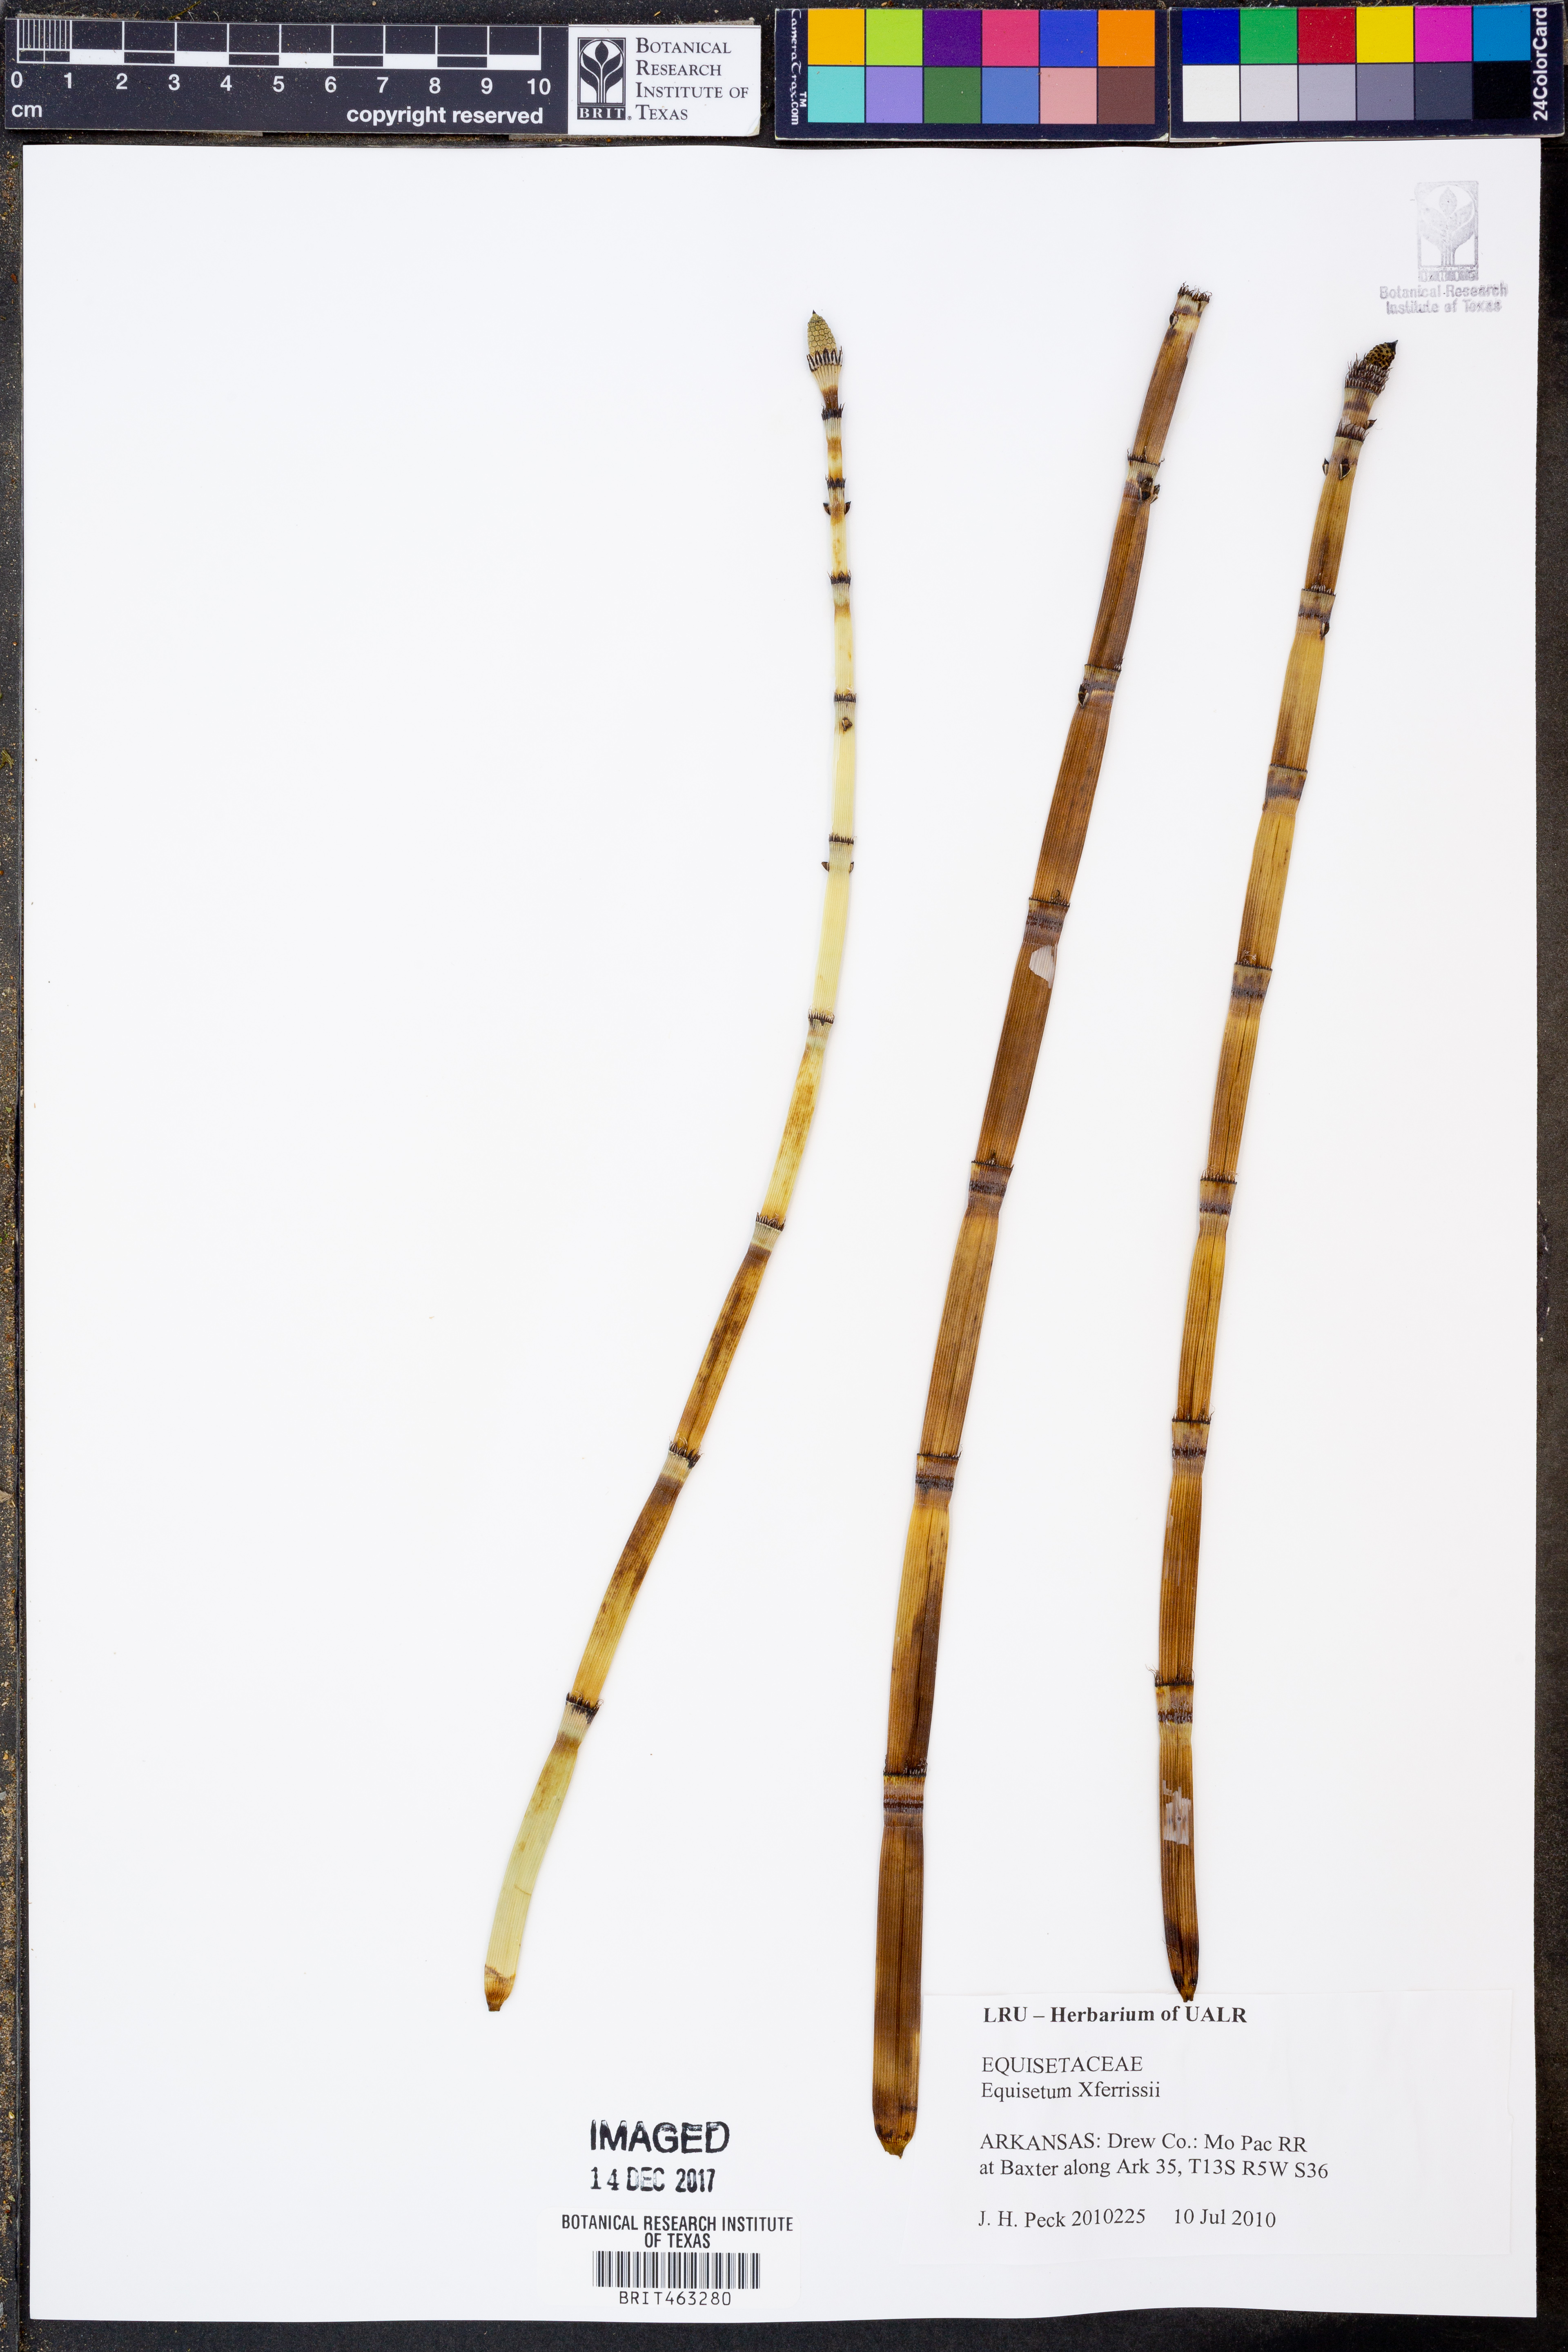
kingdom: Plantae
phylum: Tracheophyta
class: Polypodiopsida
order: Equisetales
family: Equisetaceae
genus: Equisetum
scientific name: Equisetum ferrissii
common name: Ferriss' horsetail
